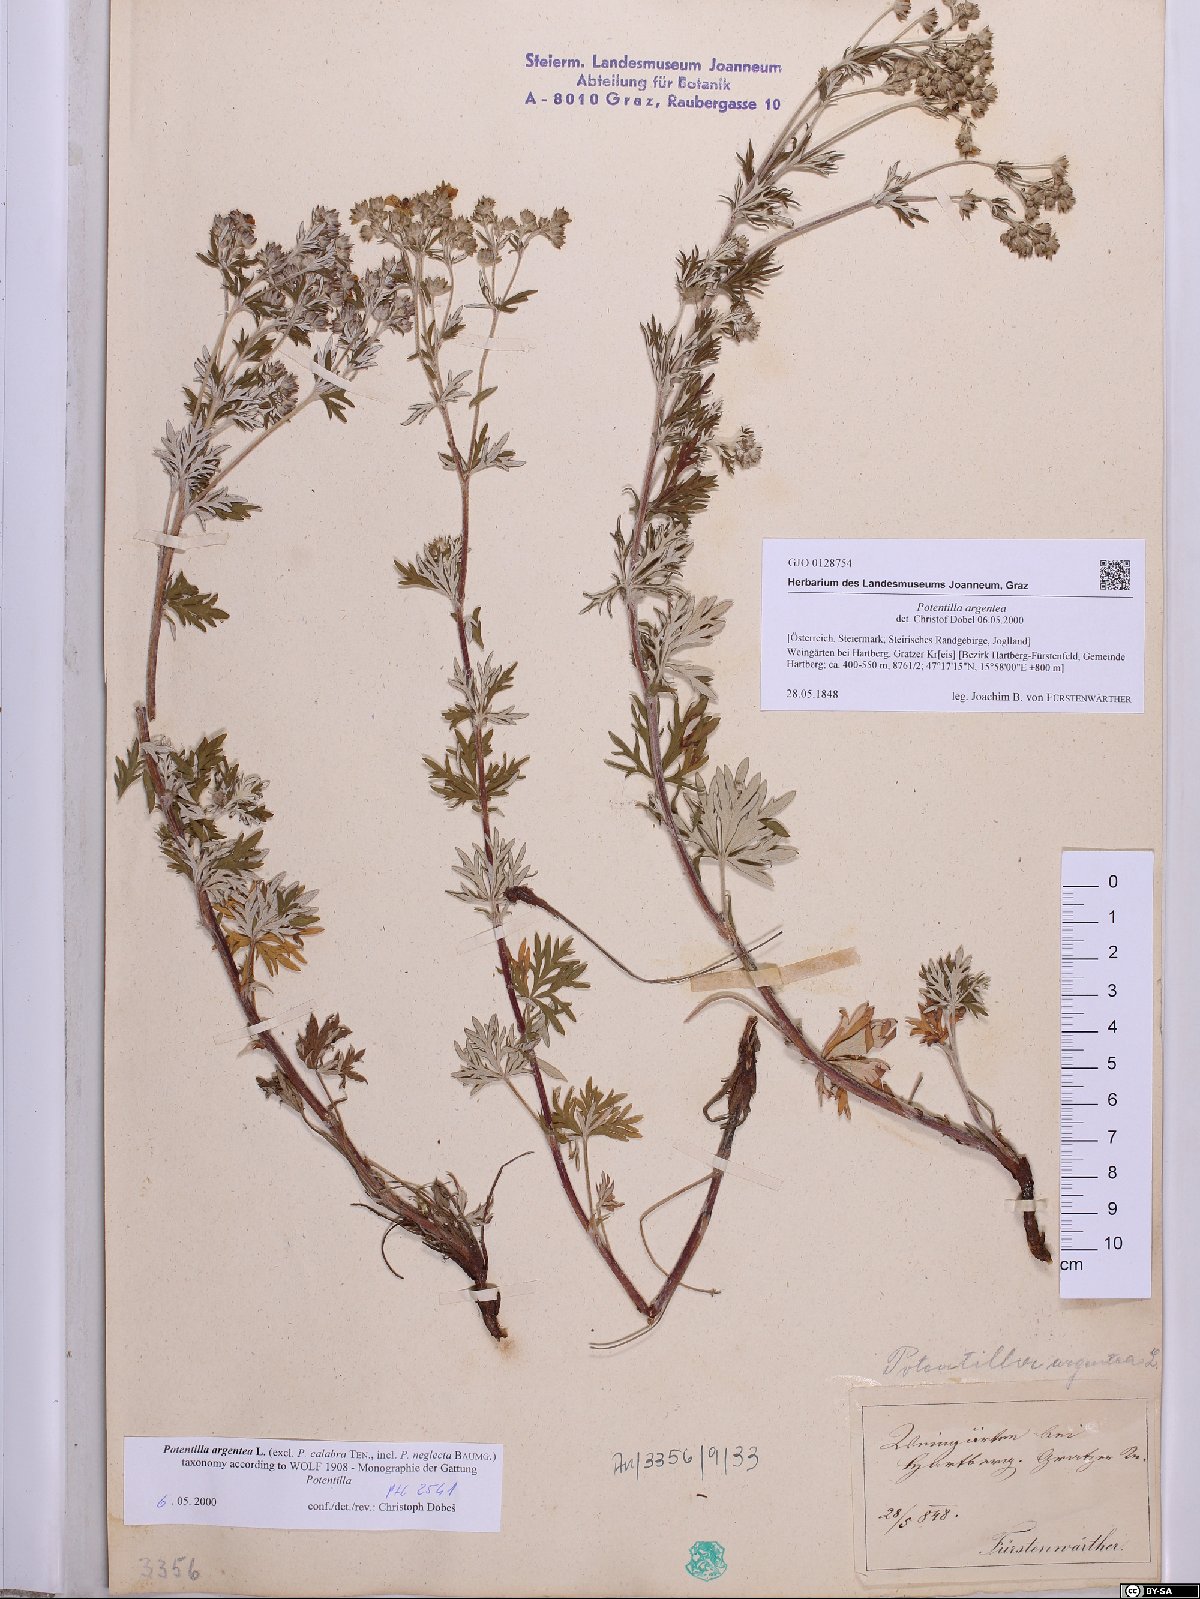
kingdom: Plantae
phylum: Tracheophyta
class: Magnoliopsida
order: Rosales
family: Rosaceae
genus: Potentilla
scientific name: Potentilla argentea
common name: Hoary cinquefoil
